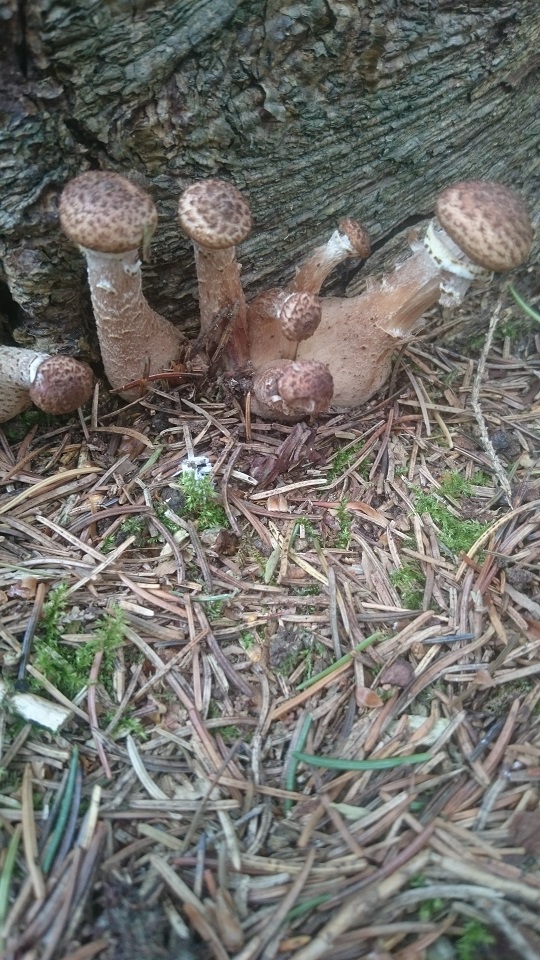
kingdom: Fungi
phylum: Basidiomycota
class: Agaricomycetes
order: Agaricales
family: Physalacriaceae
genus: Armillaria
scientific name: Armillaria ostoyae
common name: mørk honningsvamp
